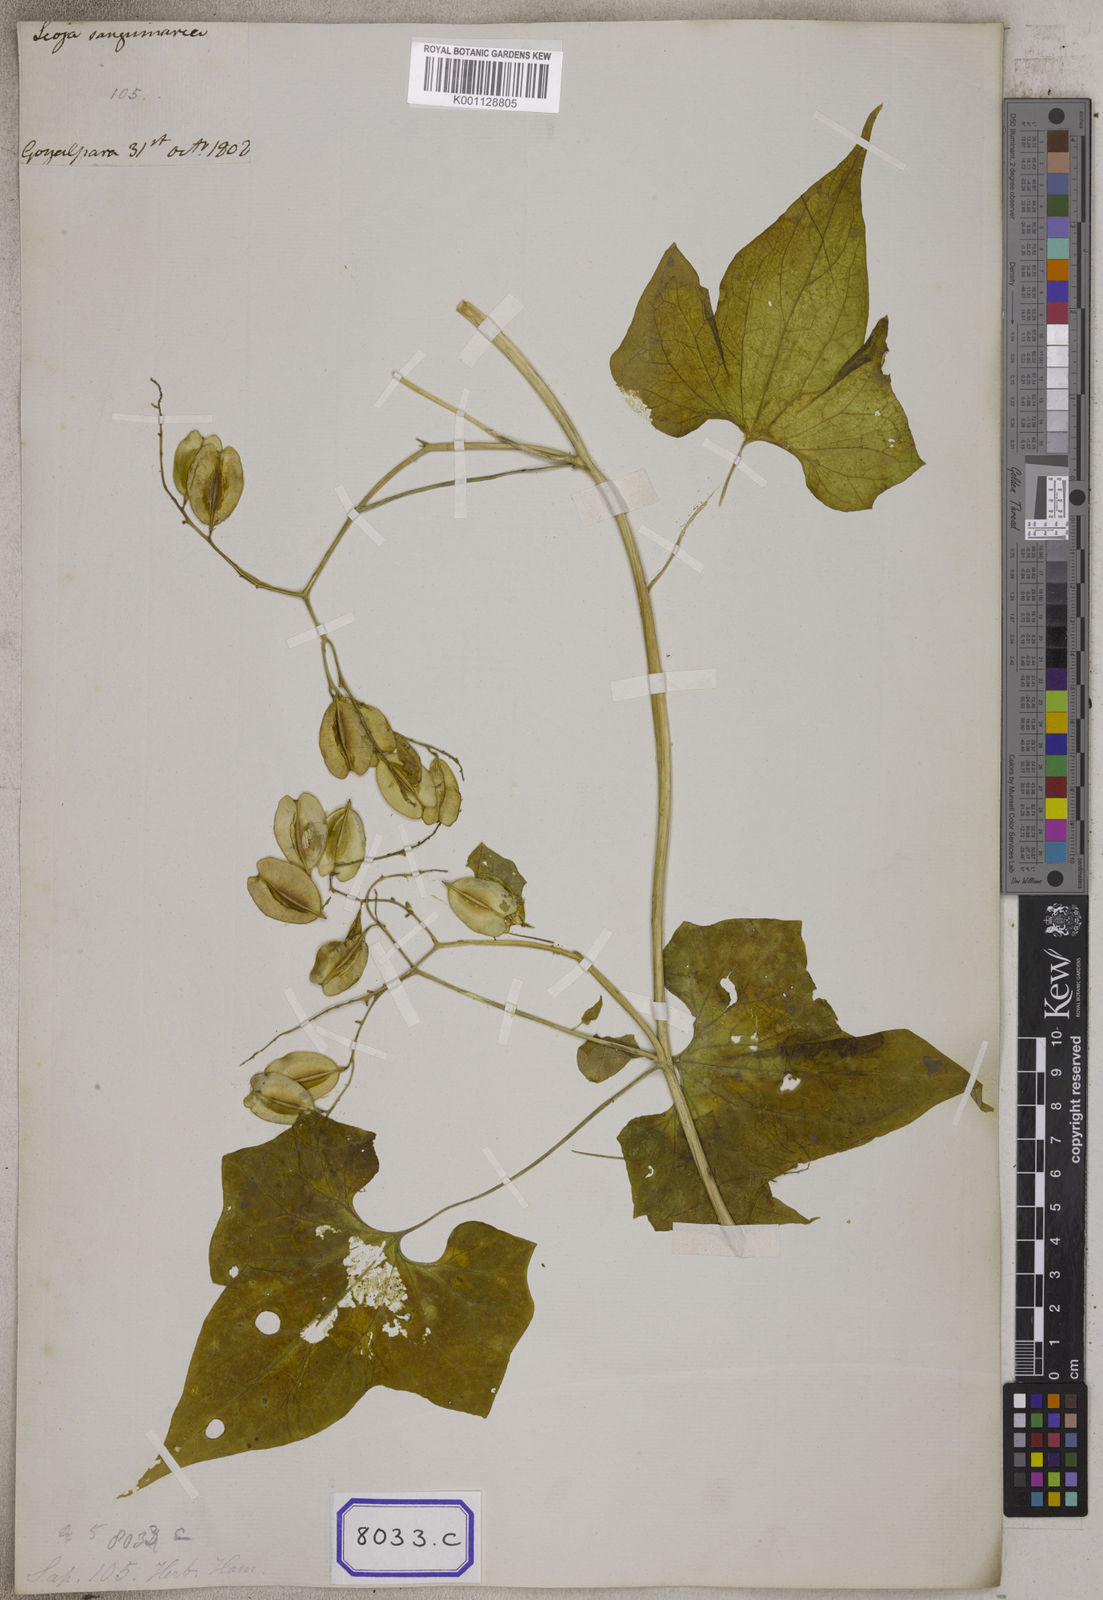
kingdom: Plantae
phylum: Tracheophyta
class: Magnoliopsida
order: Cardiopteridales
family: Cardiopteridaceae
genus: Cardiopteris
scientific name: Cardiopteris
